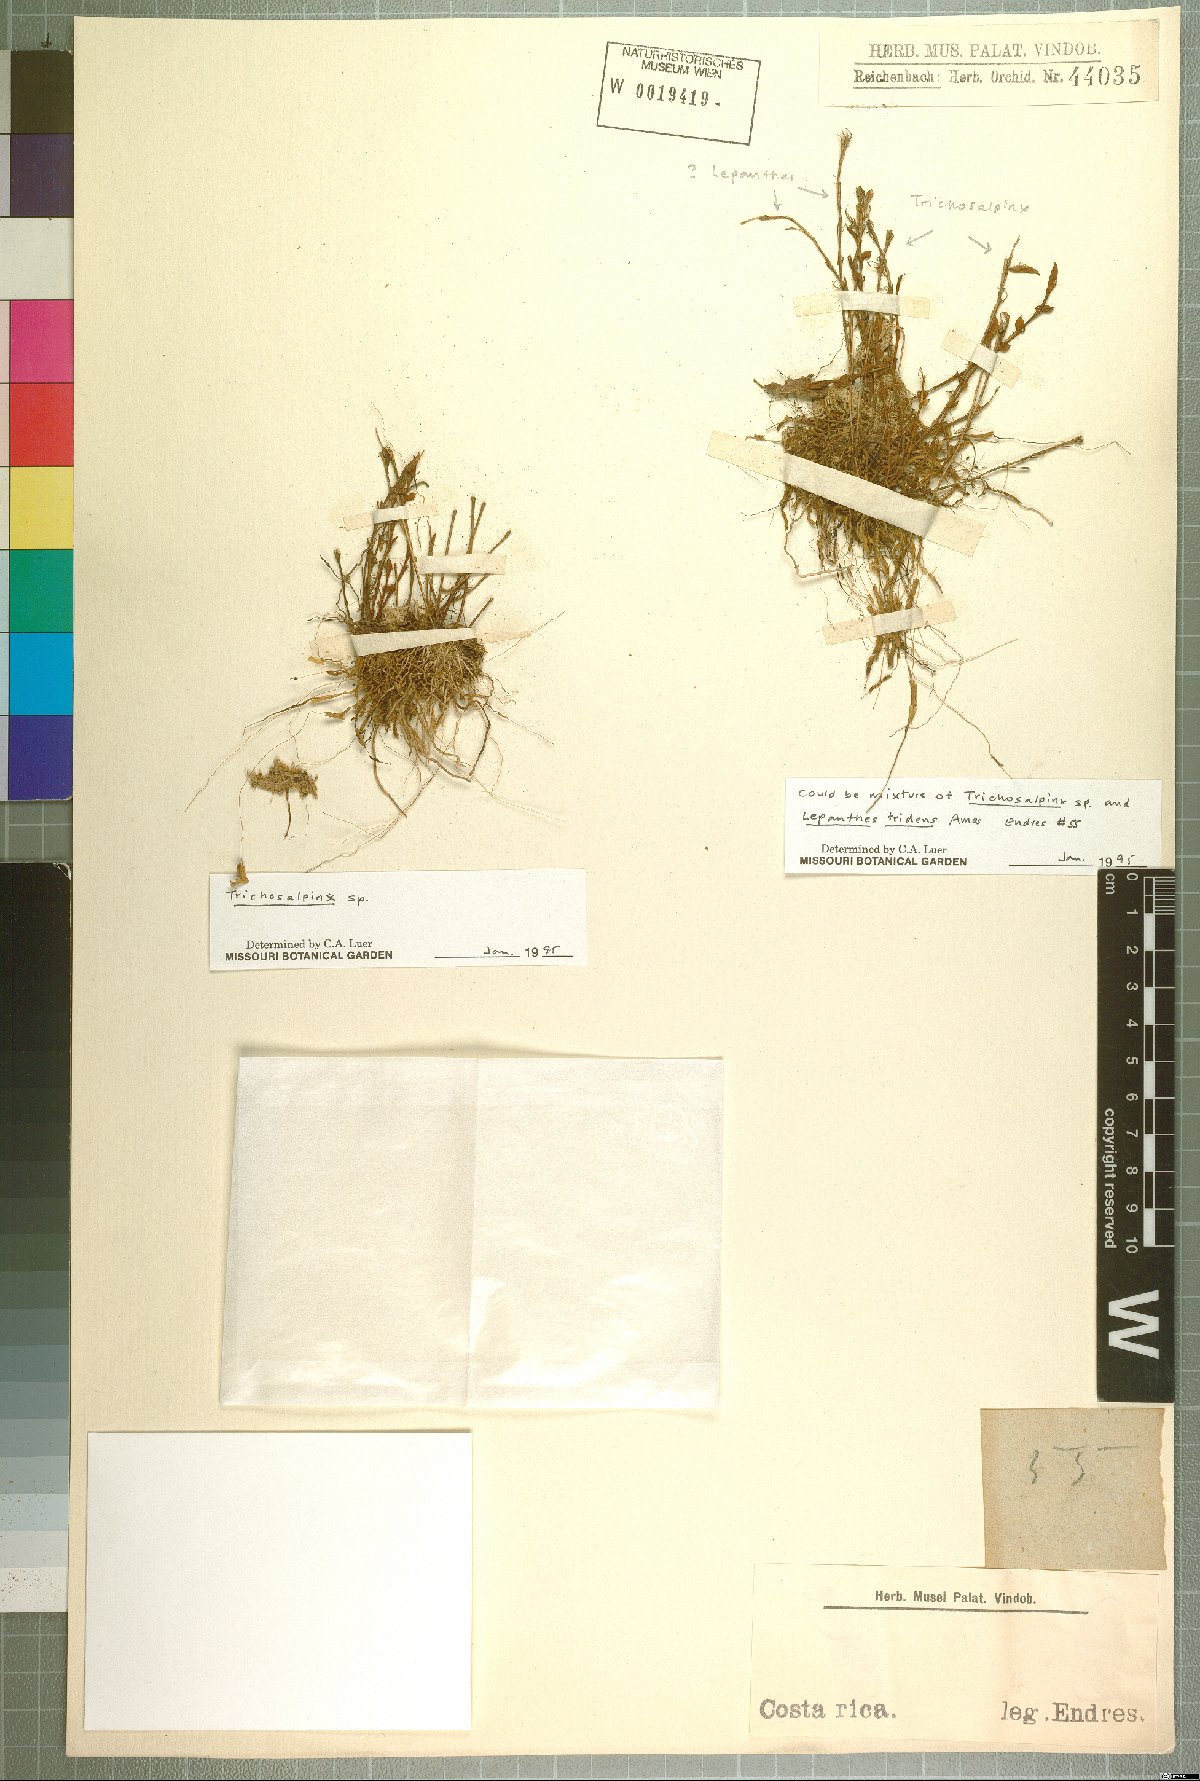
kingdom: Plantae
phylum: Tracheophyta
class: Liliopsida
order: Asparagales
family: Orchidaceae
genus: Trichosalpinx
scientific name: Trichosalpinx
